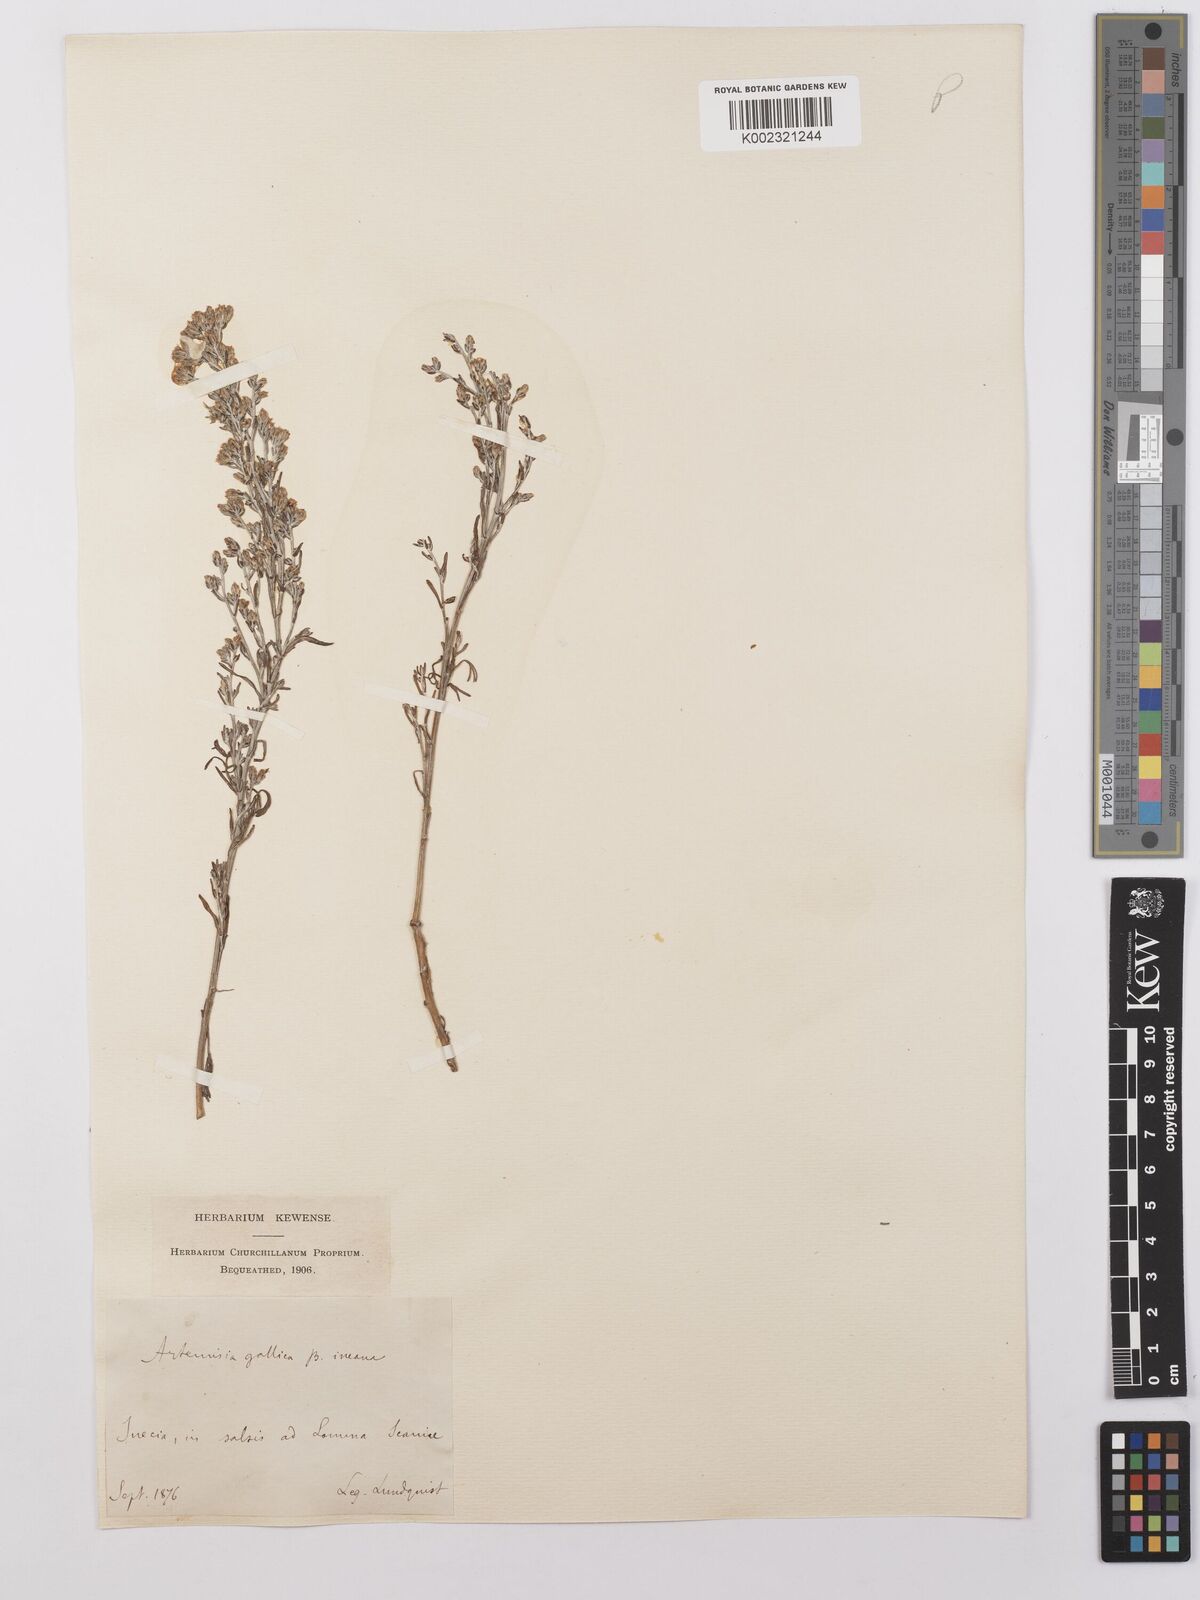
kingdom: Plantae
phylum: Tracheophyta
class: Magnoliopsida
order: Asterales
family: Asteraceae
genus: Artemisia
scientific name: Artemisia maritima
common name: Wormseed
